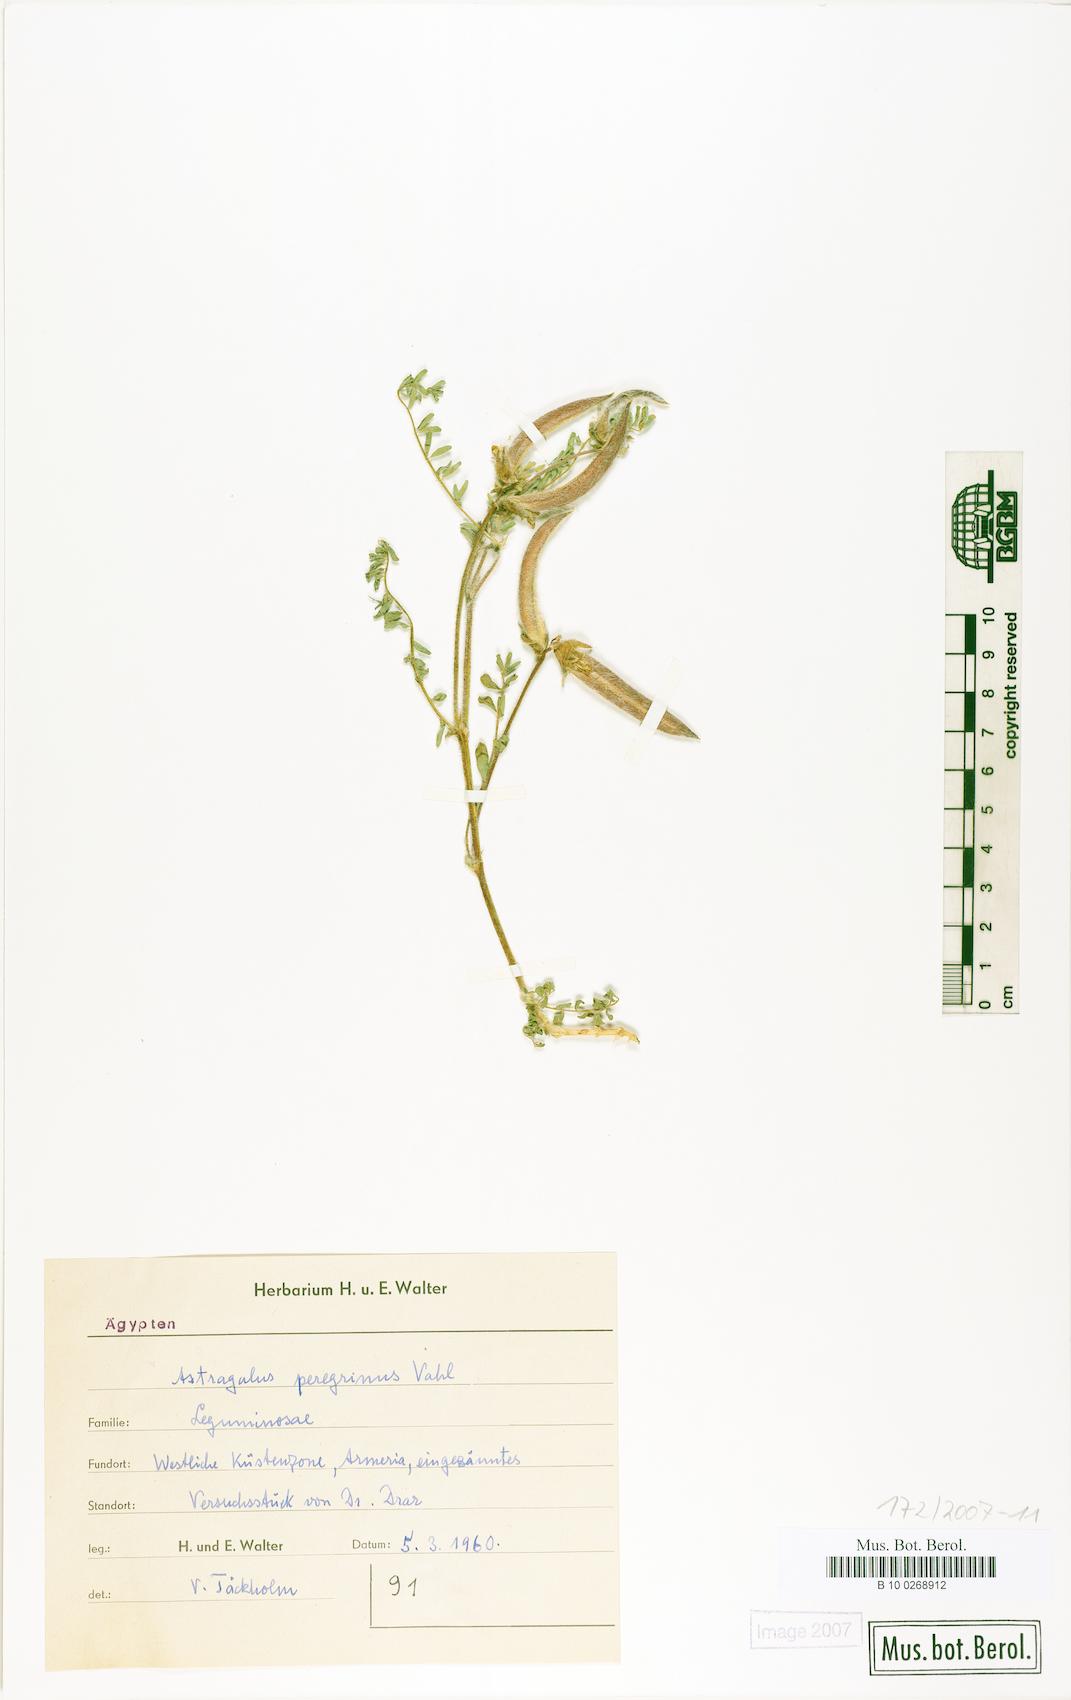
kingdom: Plantae
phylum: Tracheophyta
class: Magnoliopsida
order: Fabales
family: Fabaceae
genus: Astragalus
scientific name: Astragalus peregrinus
